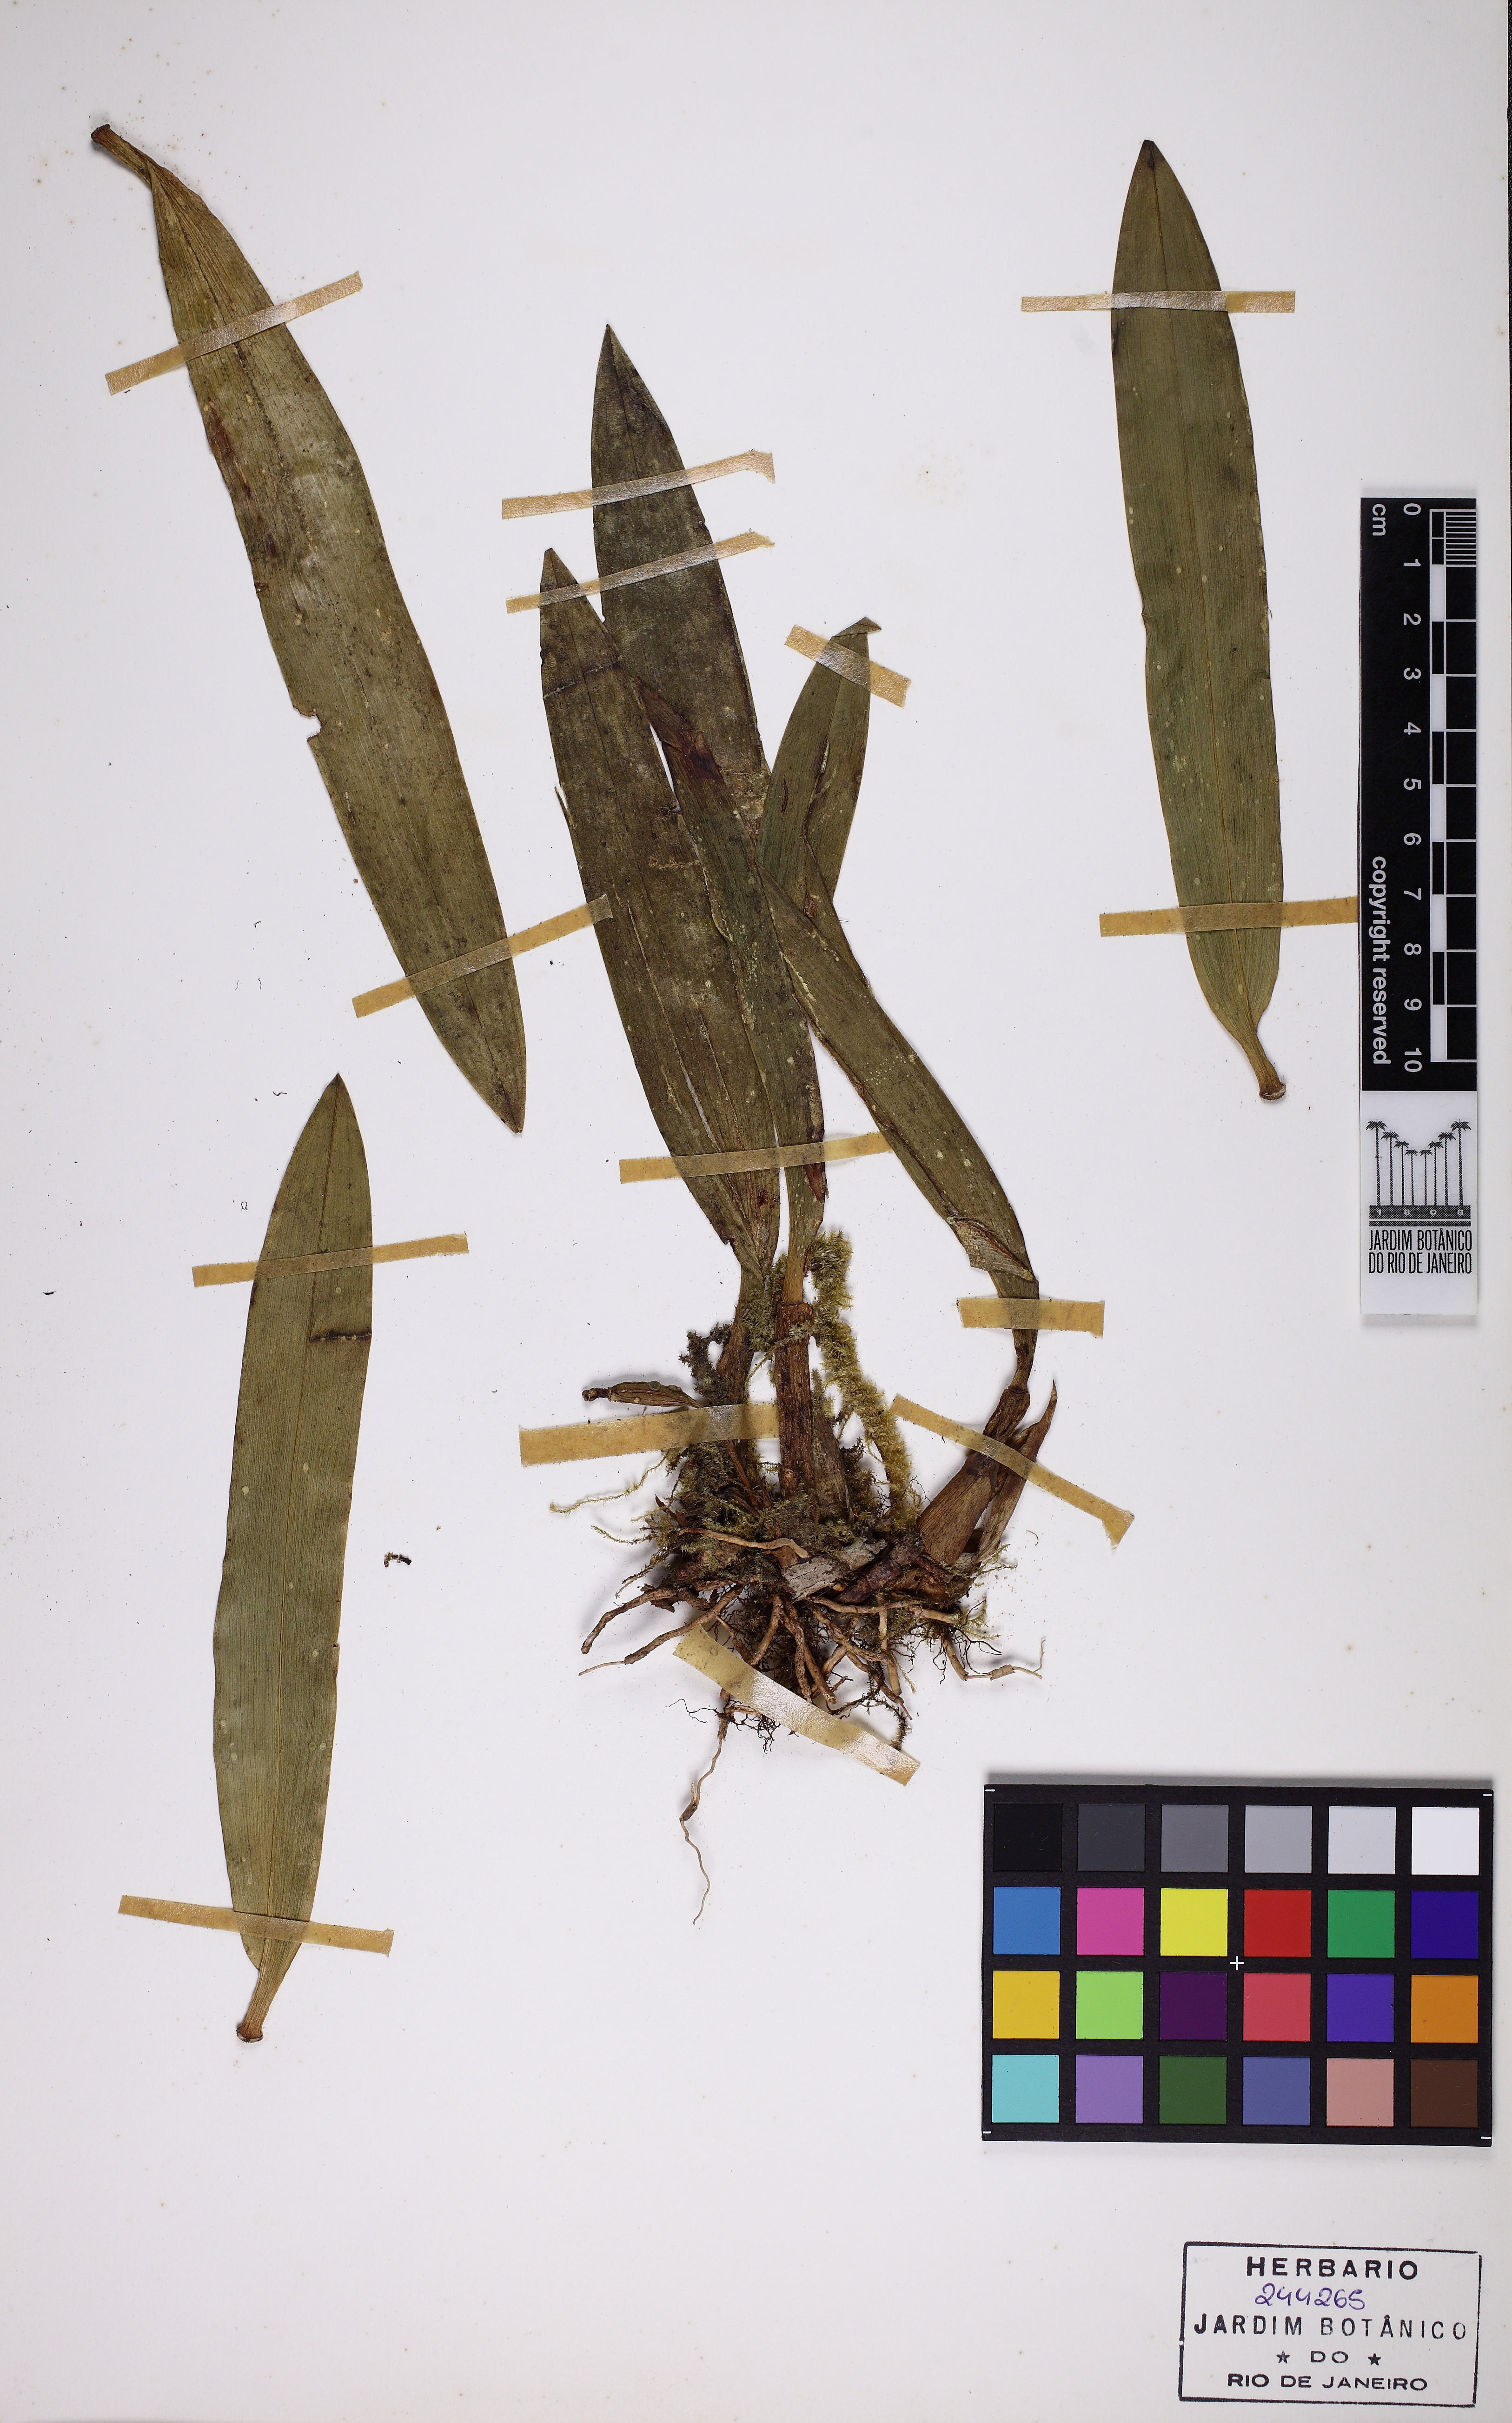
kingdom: Plantae
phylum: Tracheophyta
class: Liliopsida
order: Asparagales
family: Orchidaceae
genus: Maxillaria
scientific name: Maxillaria
